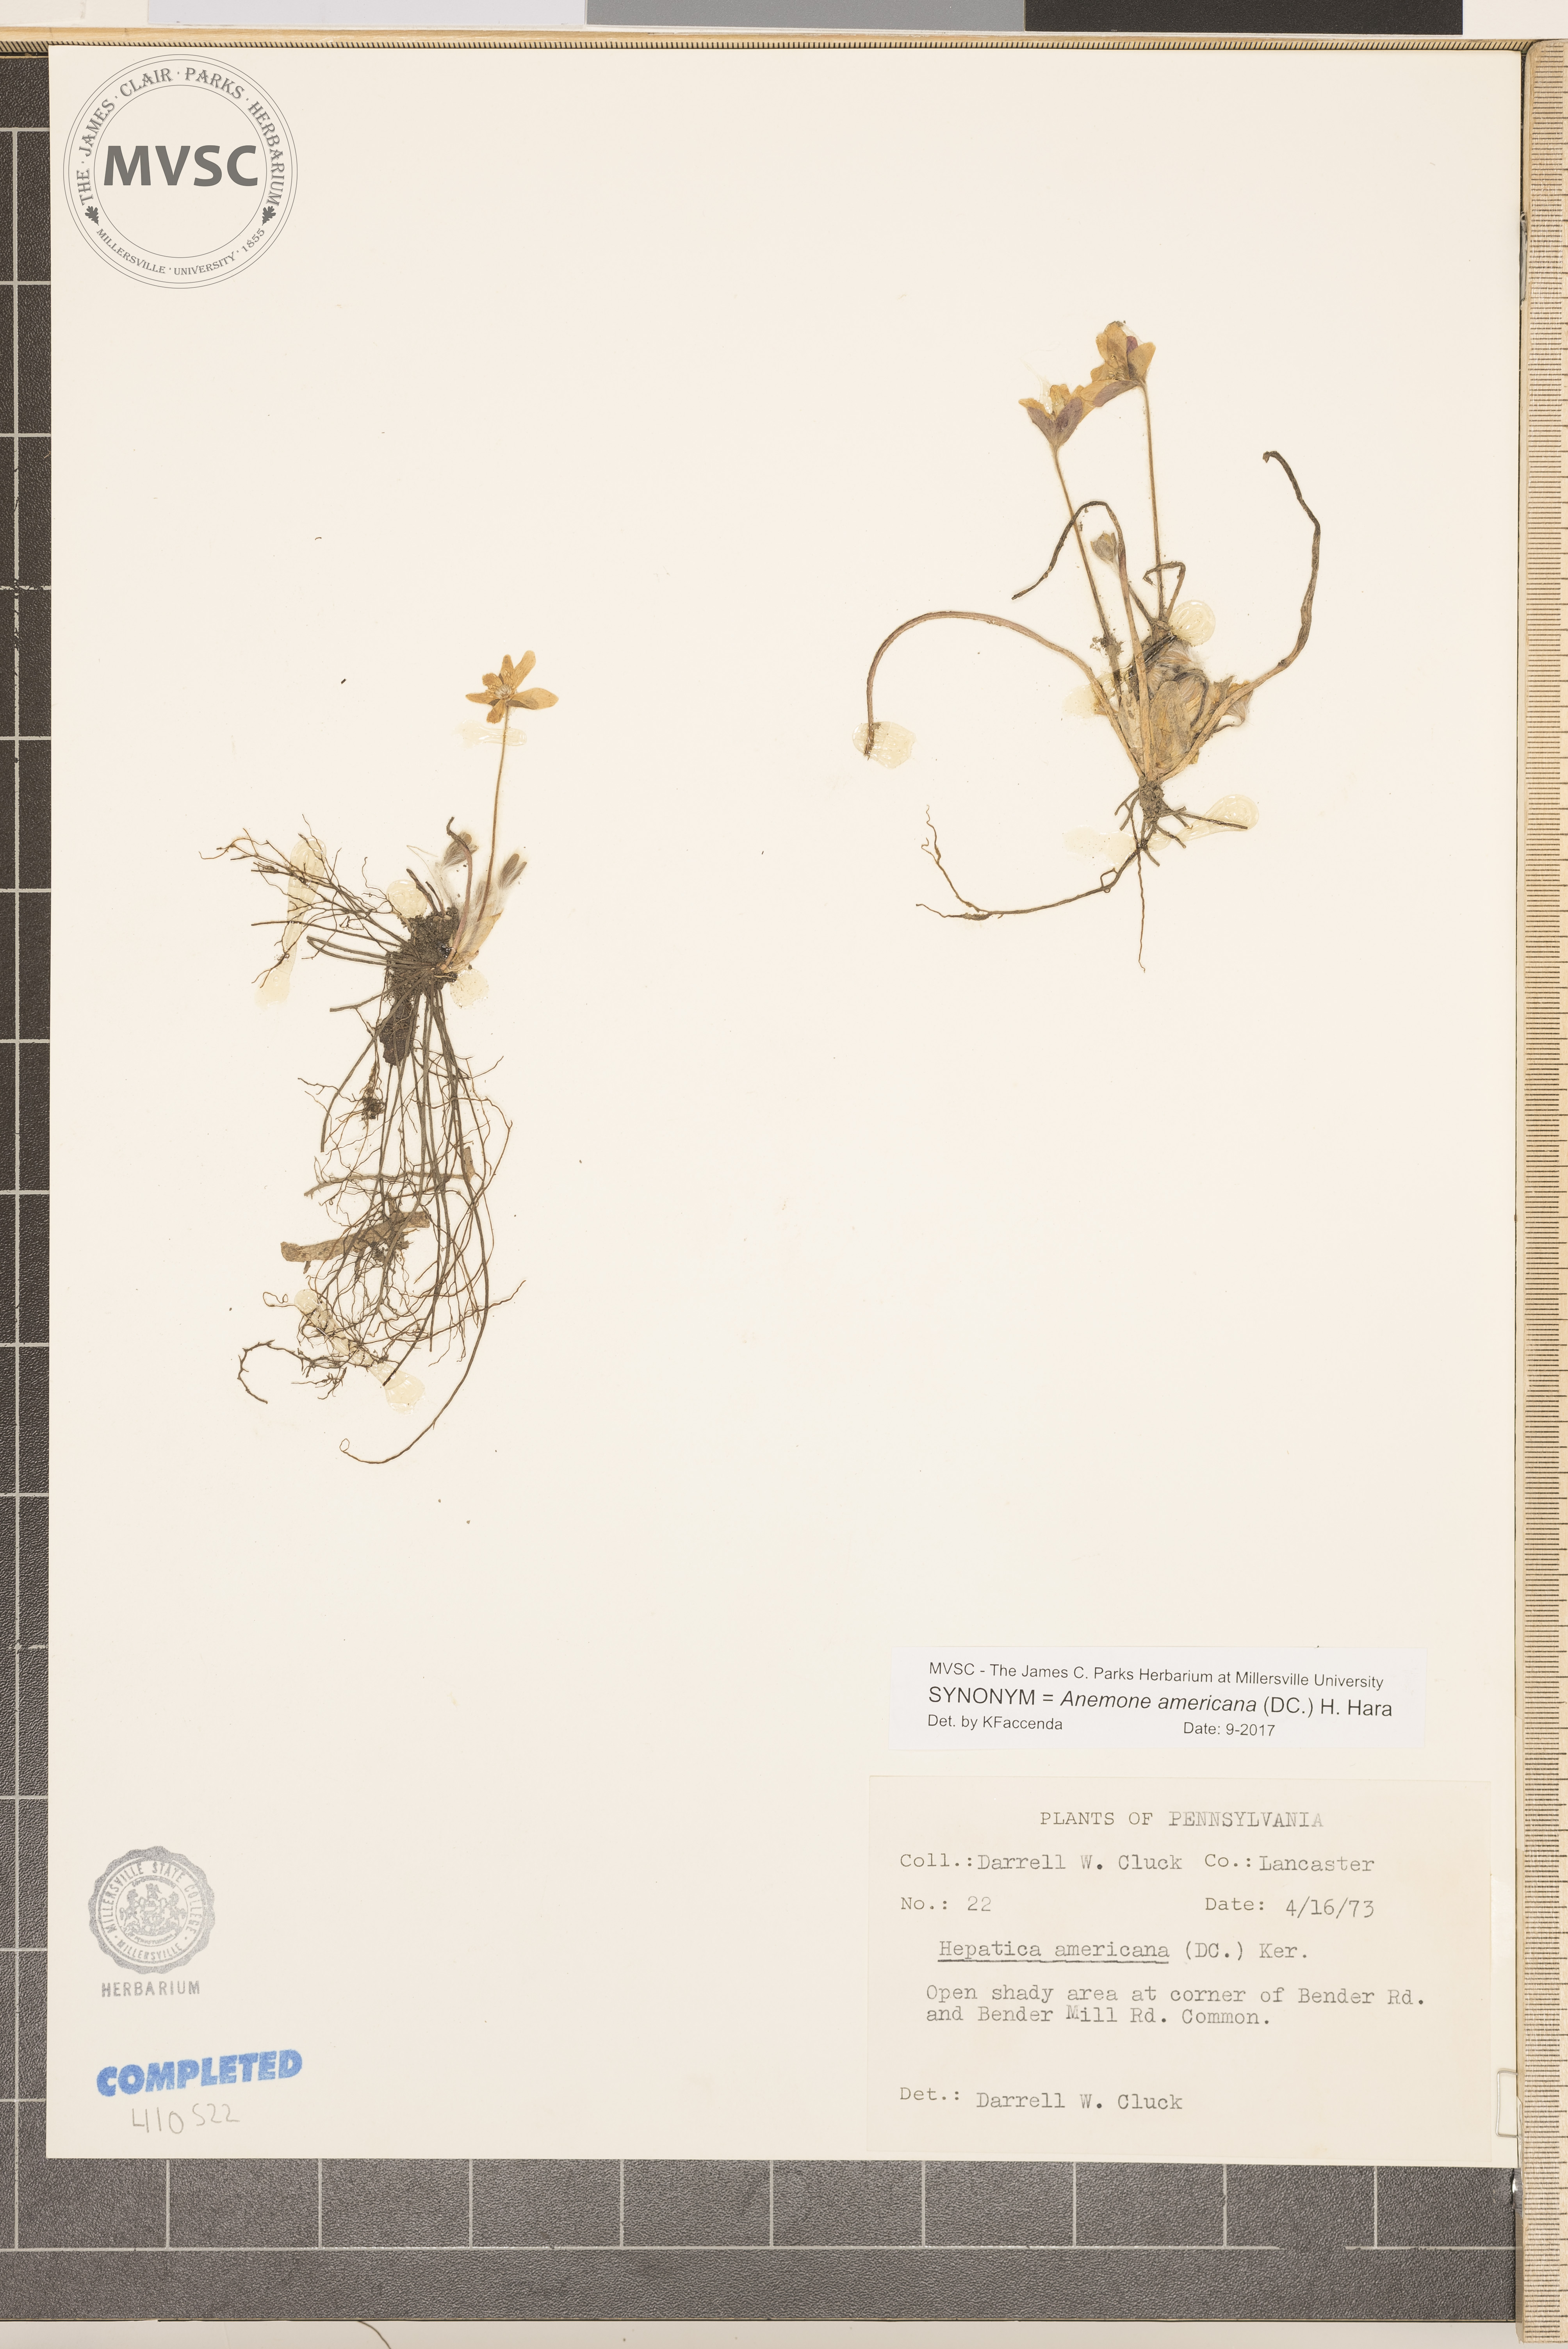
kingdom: Plantae
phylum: Tracheophyta
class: Magnoliopsida
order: Ranunculales
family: Ranunculaceae
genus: Hepatica
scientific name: Hepatica americana
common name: American hepatica
